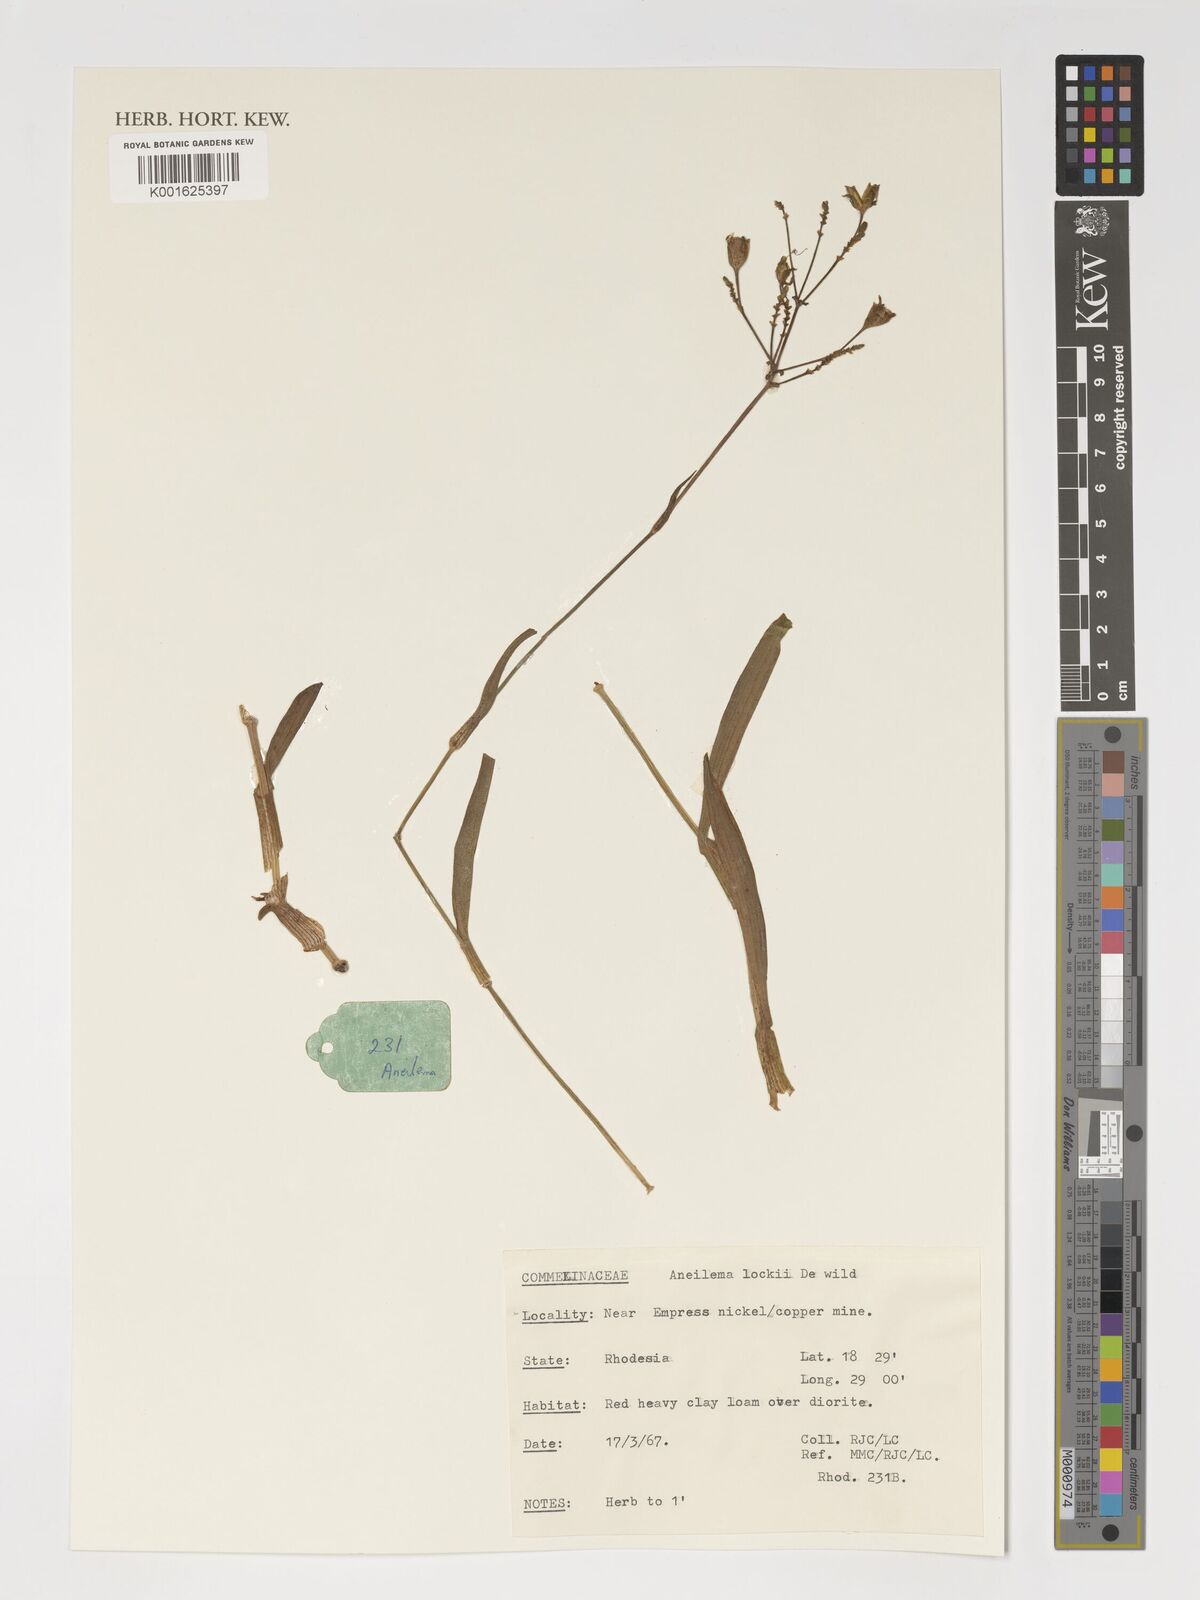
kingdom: Plantae
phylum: Tracheophyta
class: Liliopsida
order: Commelinales
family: Commelinaceae
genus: Aneilema
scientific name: Aneilema hockii
